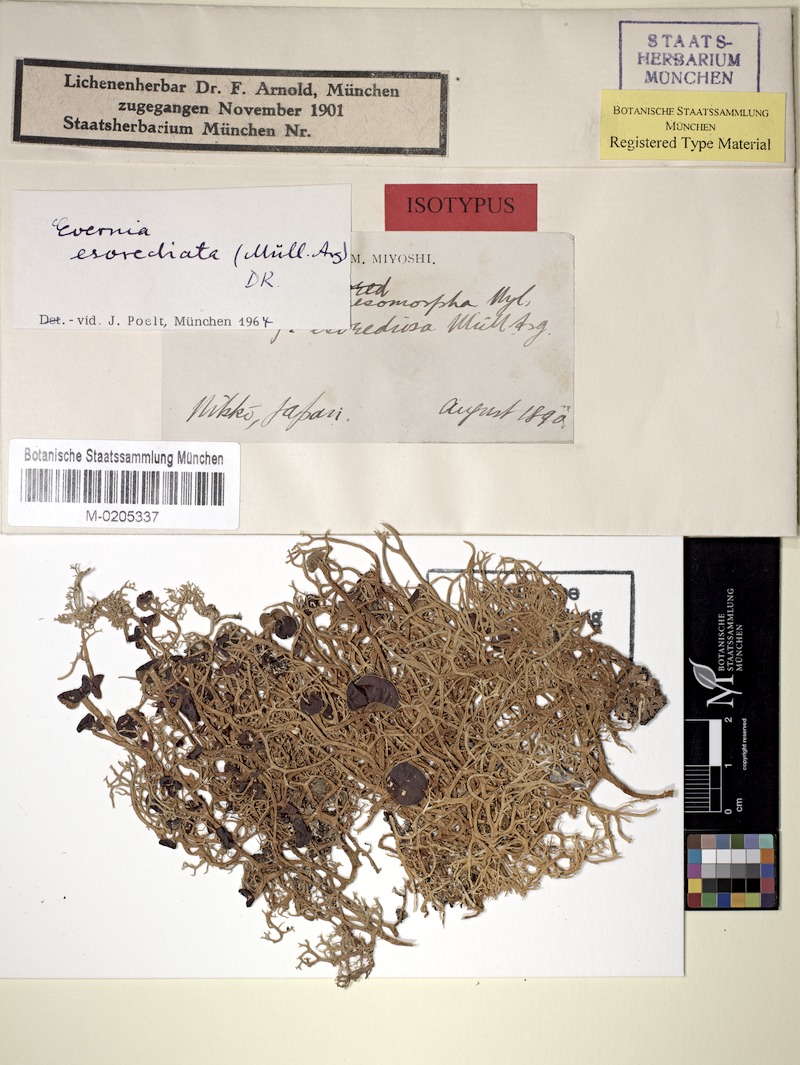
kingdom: Fungi
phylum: Ascomycota
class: Lecanoromycetes
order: Lecanorales
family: Parmeliaceae
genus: Evernia
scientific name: Evernia esorediosa
